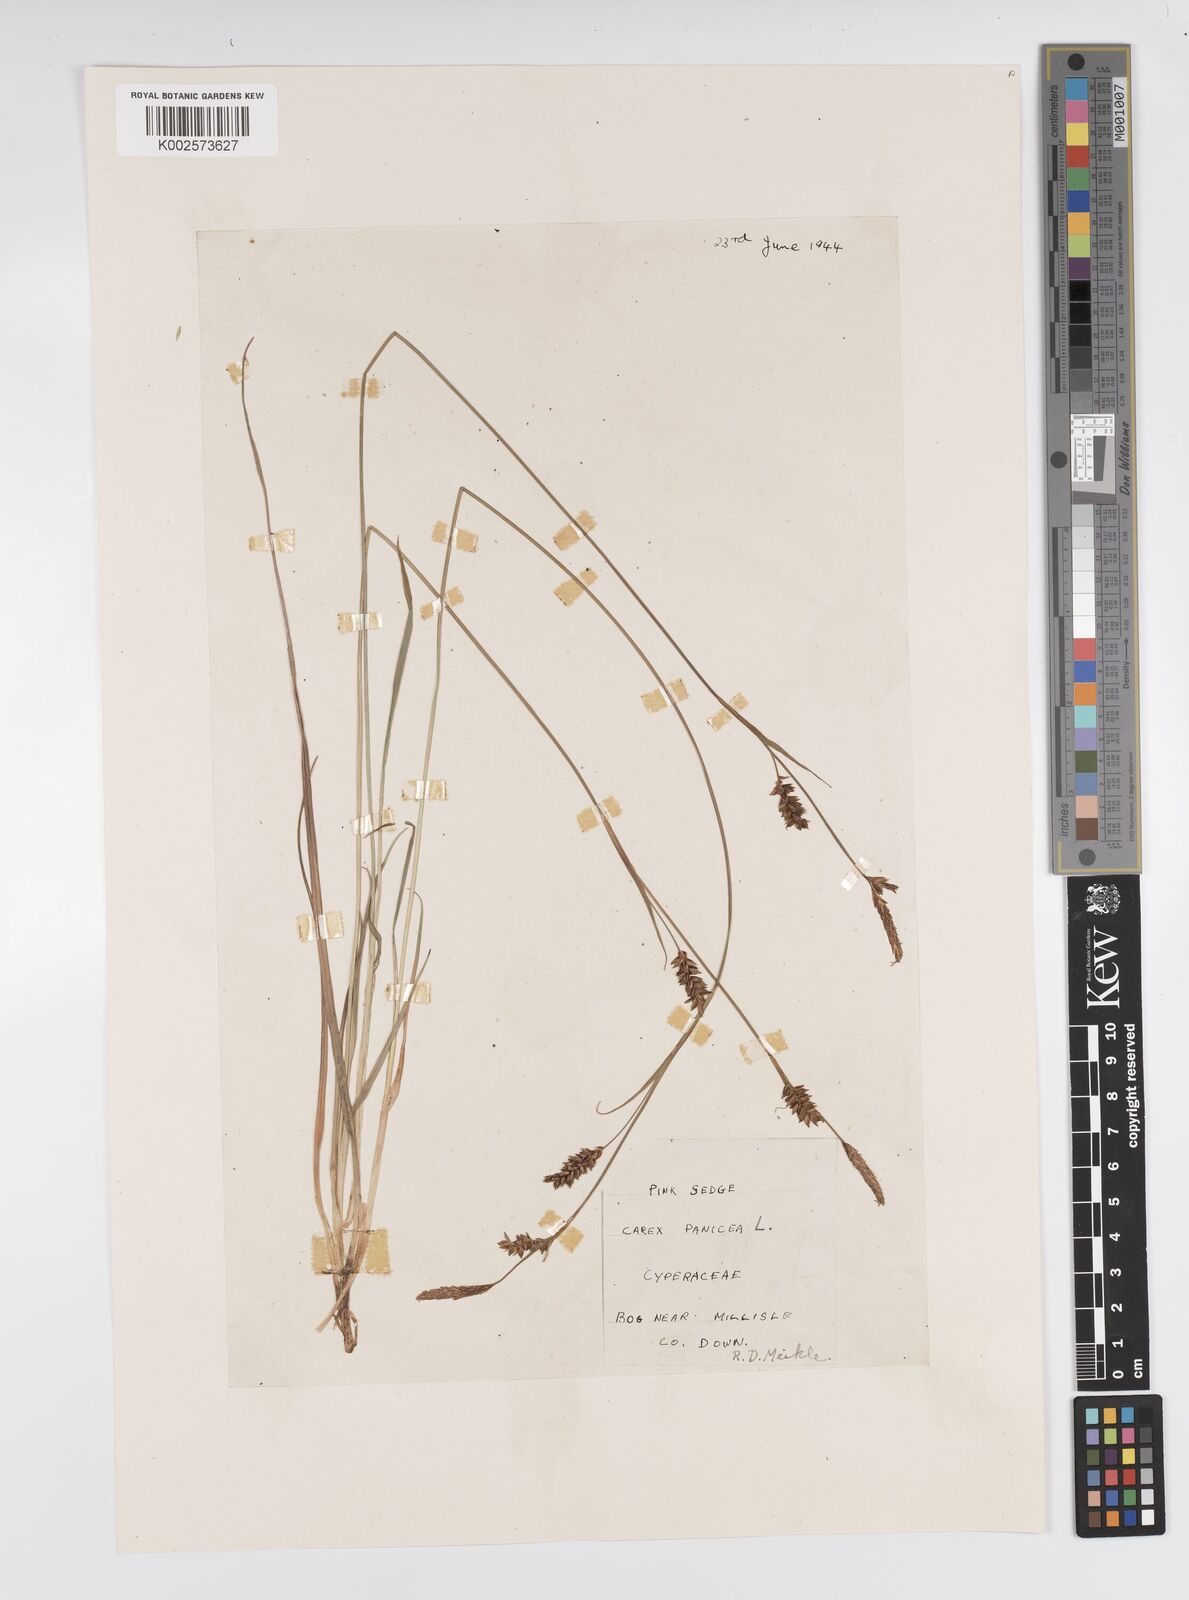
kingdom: Plantae
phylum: Tracheophyta
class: Liliopsida
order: Poales
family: Cyperaceae
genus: Carex
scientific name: Carex panicea
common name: Carnation sedge
